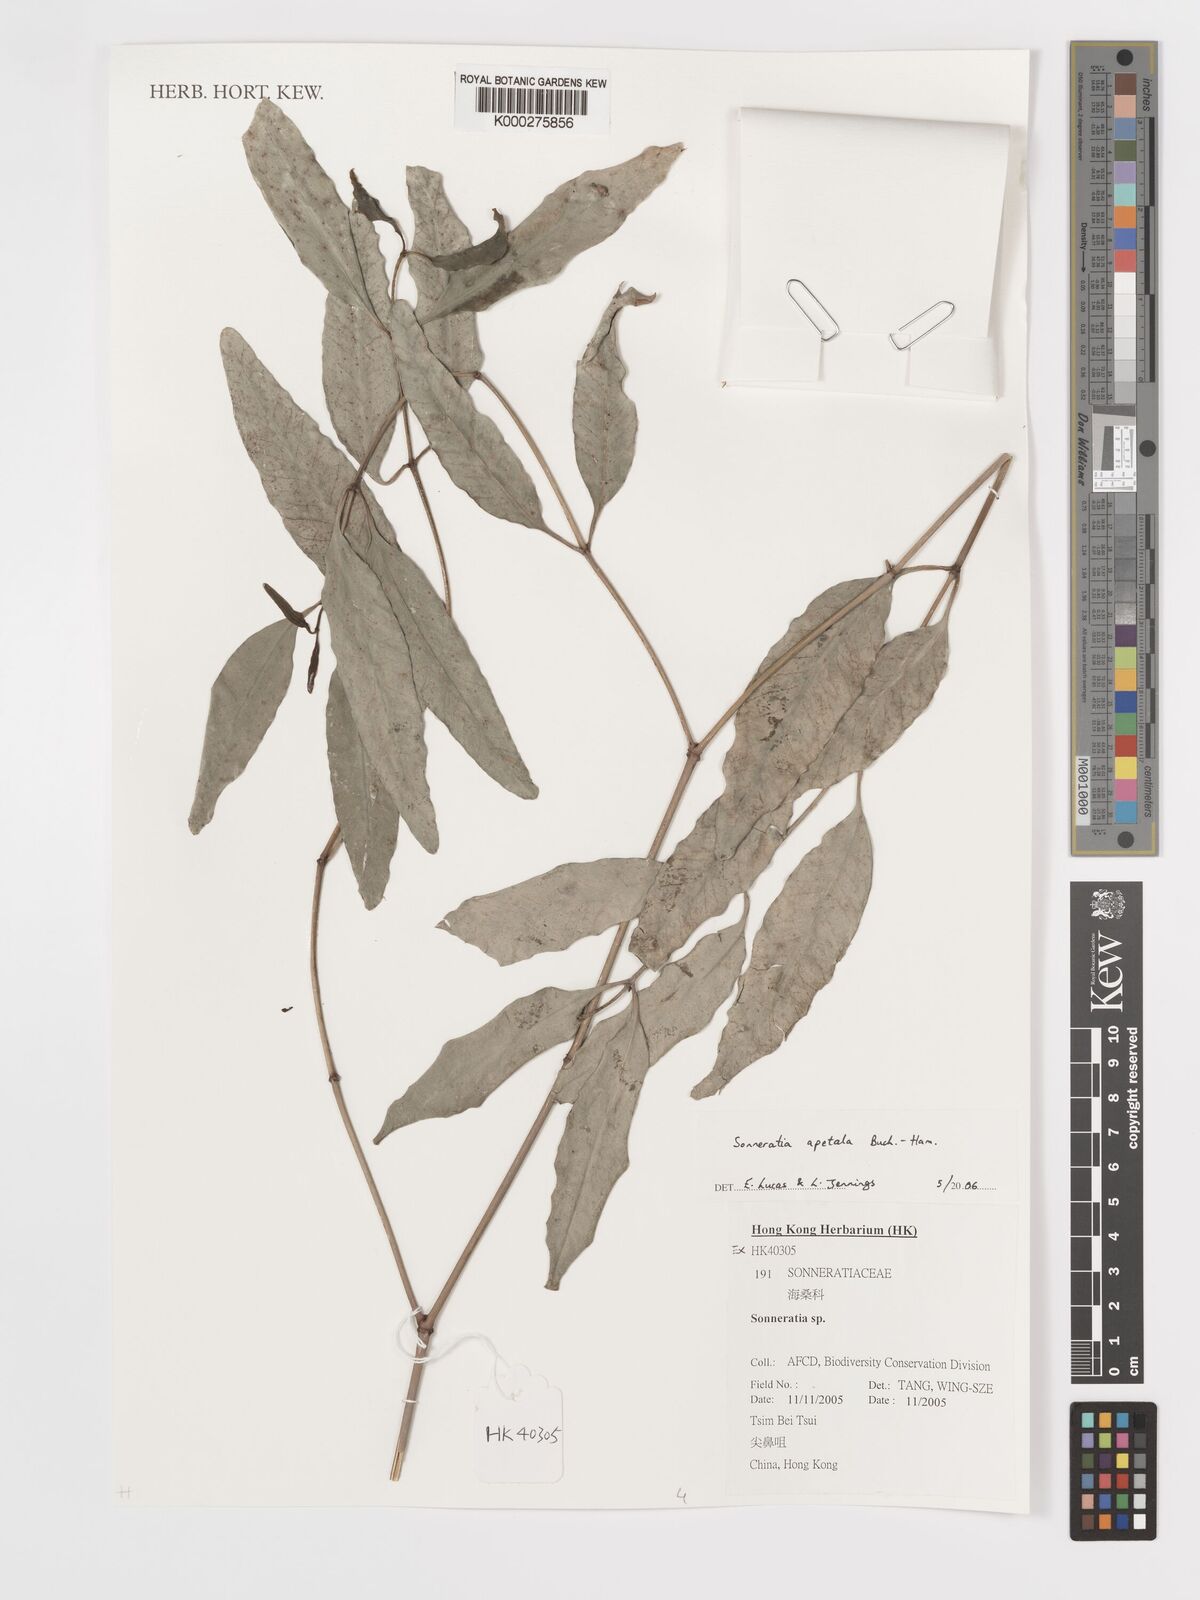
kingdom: Plantae
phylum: Tracheophyta
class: Magnoliopsida
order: Myrtales
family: Lythraceae
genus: Sonneratia
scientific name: Sonneratia
